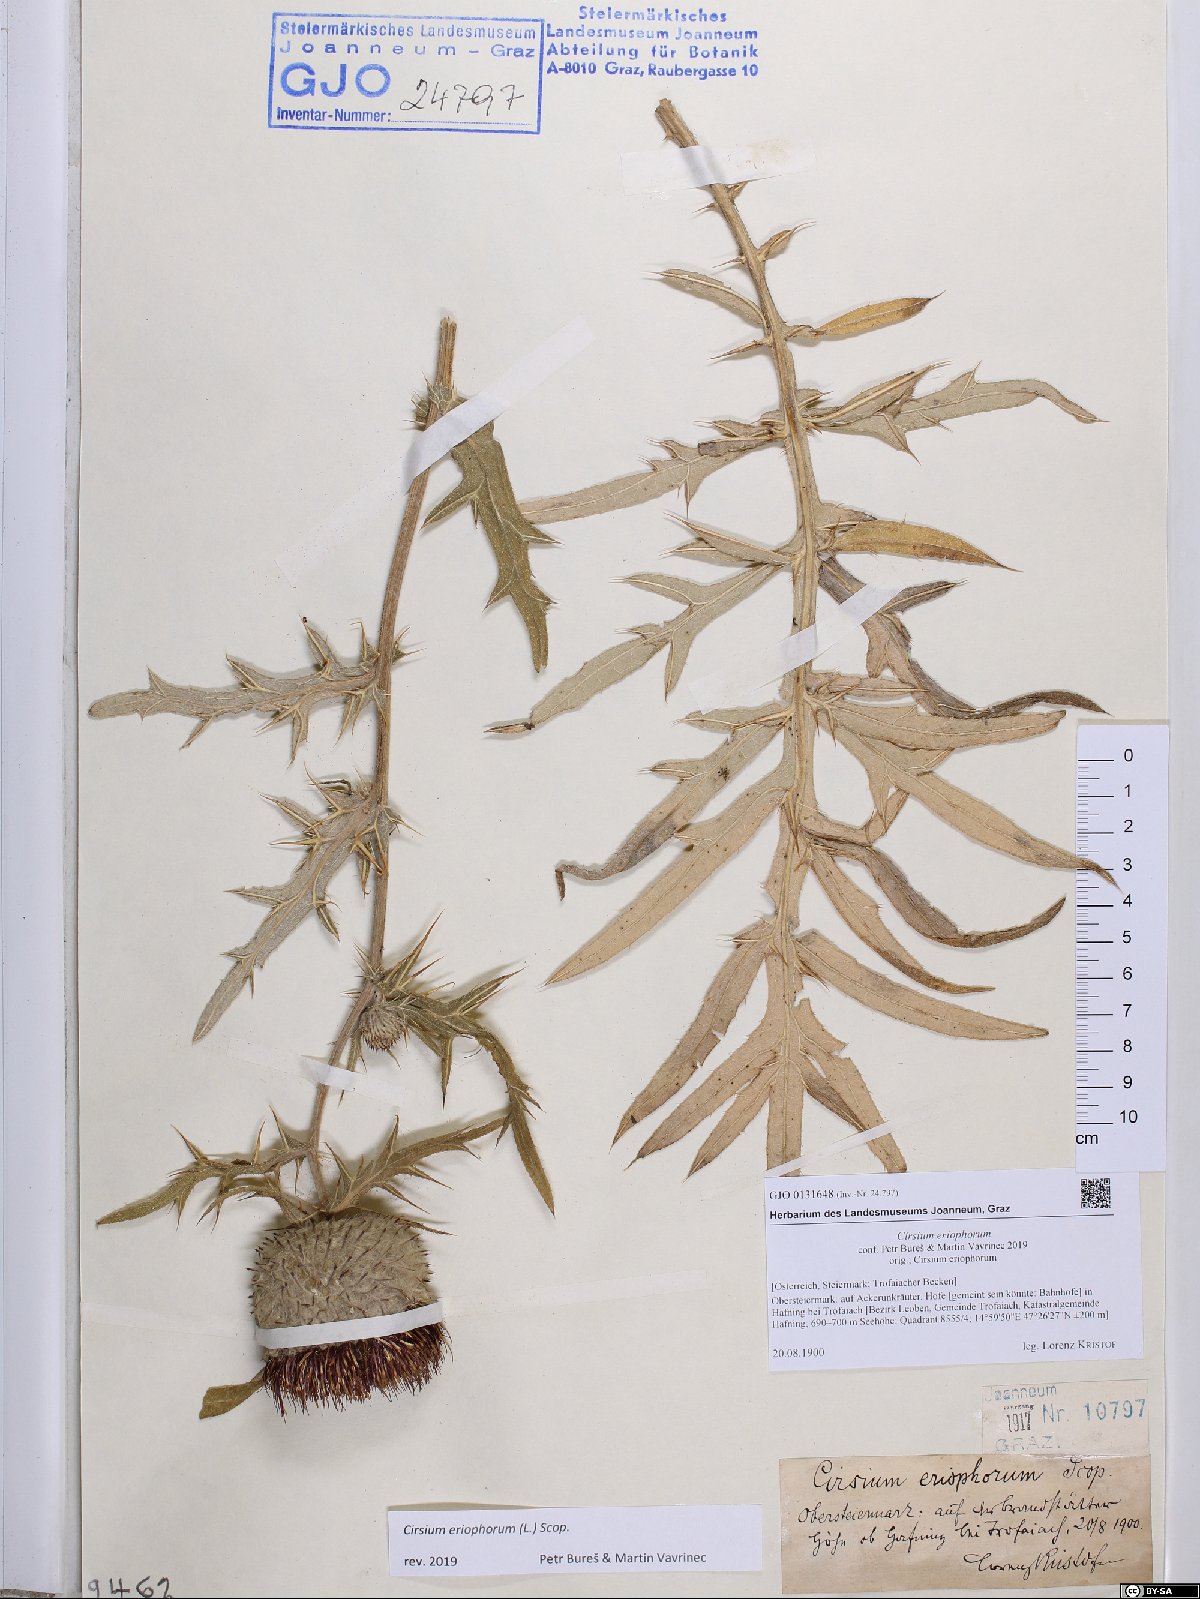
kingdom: Plantae
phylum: Tracheophyta
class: Magnoliopsida
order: Asterales
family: Asteraceae
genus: Lophiolepis
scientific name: Lophiolepis eriophora
